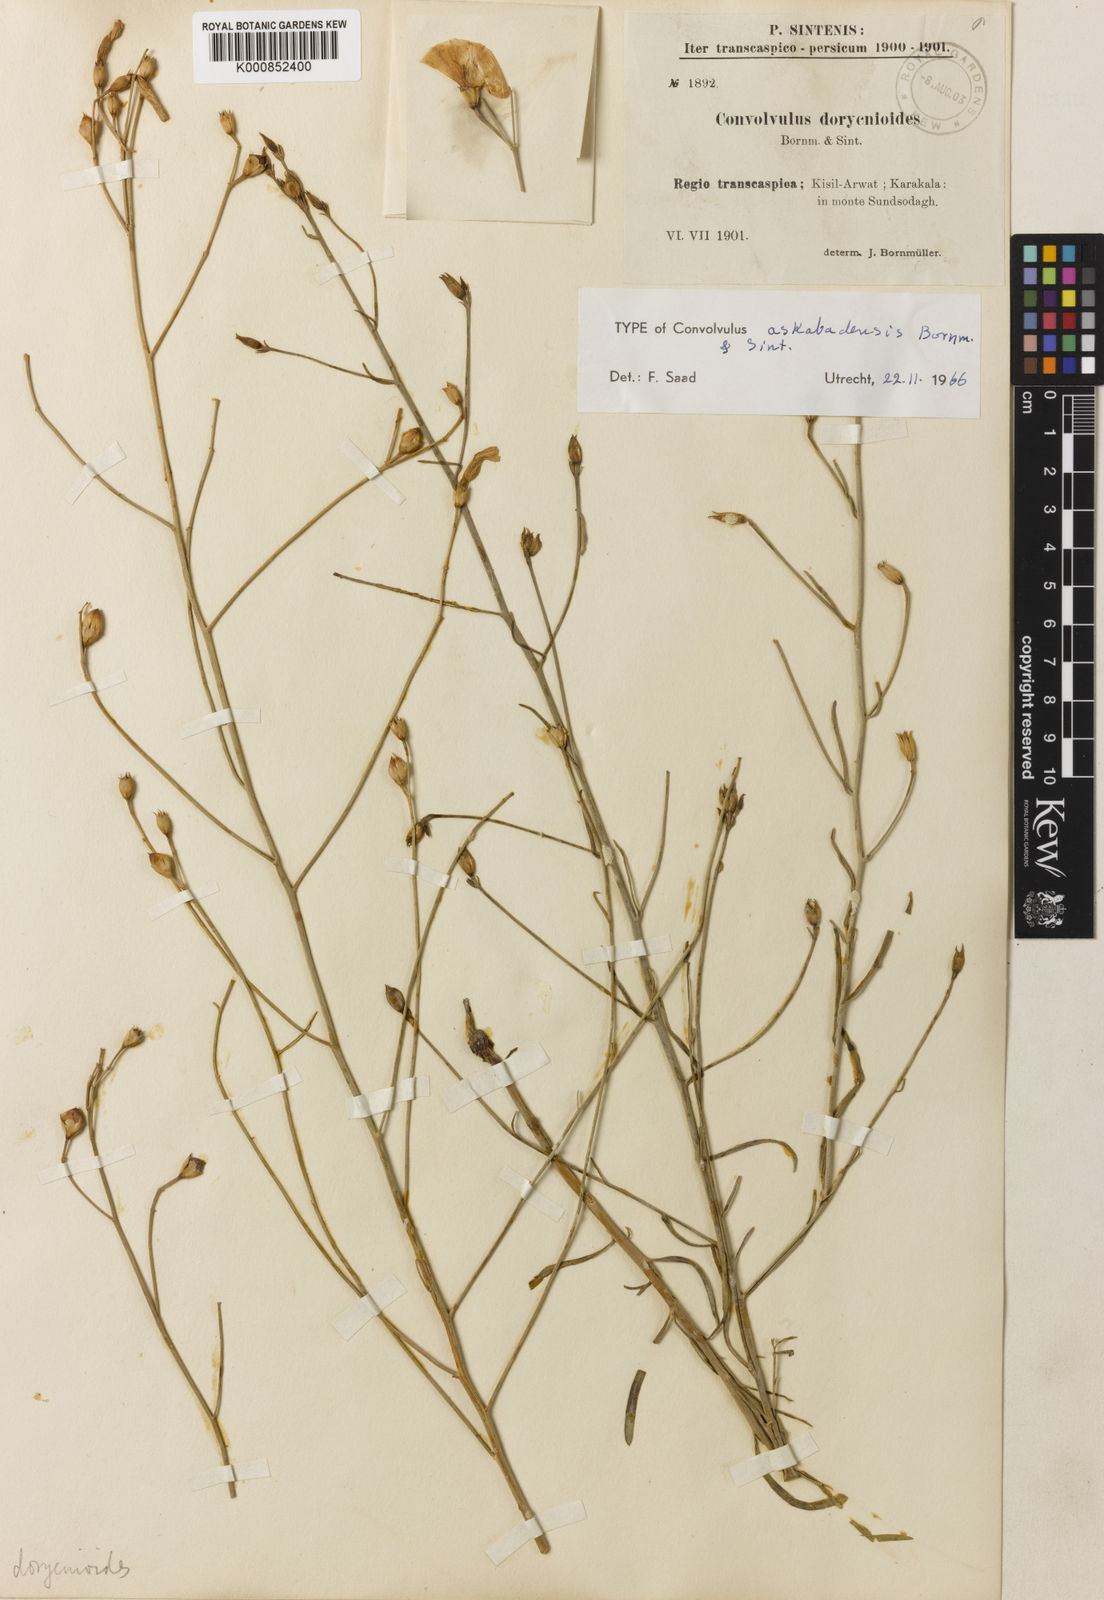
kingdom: Plantae
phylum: Tracheophyta
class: Magnoliopsida
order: Solanales
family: Convolvulaceae
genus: Convolvulus
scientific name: Convolvulus pseudocantabrica
